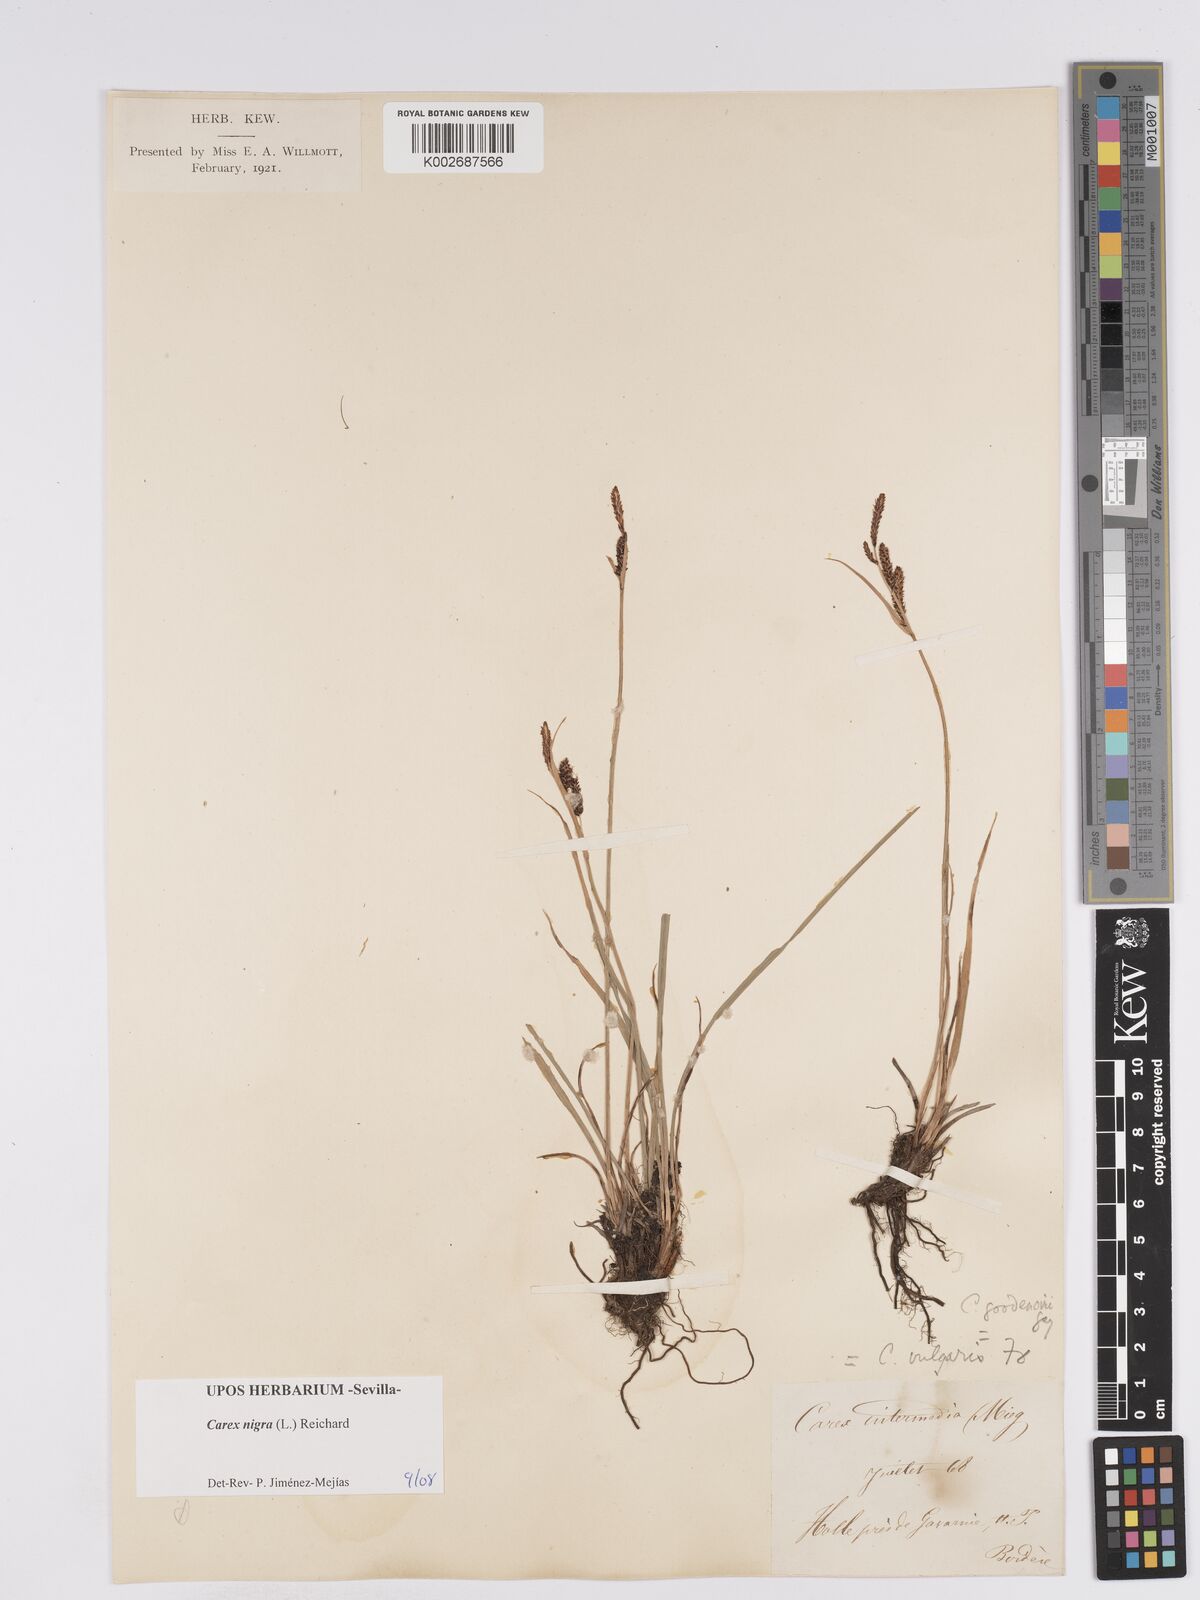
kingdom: Plantae
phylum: Tracheophyta
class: Liliopsida
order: Poales
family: Cyperaceae
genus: Carex
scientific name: Carex nigra
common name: Common sedge
